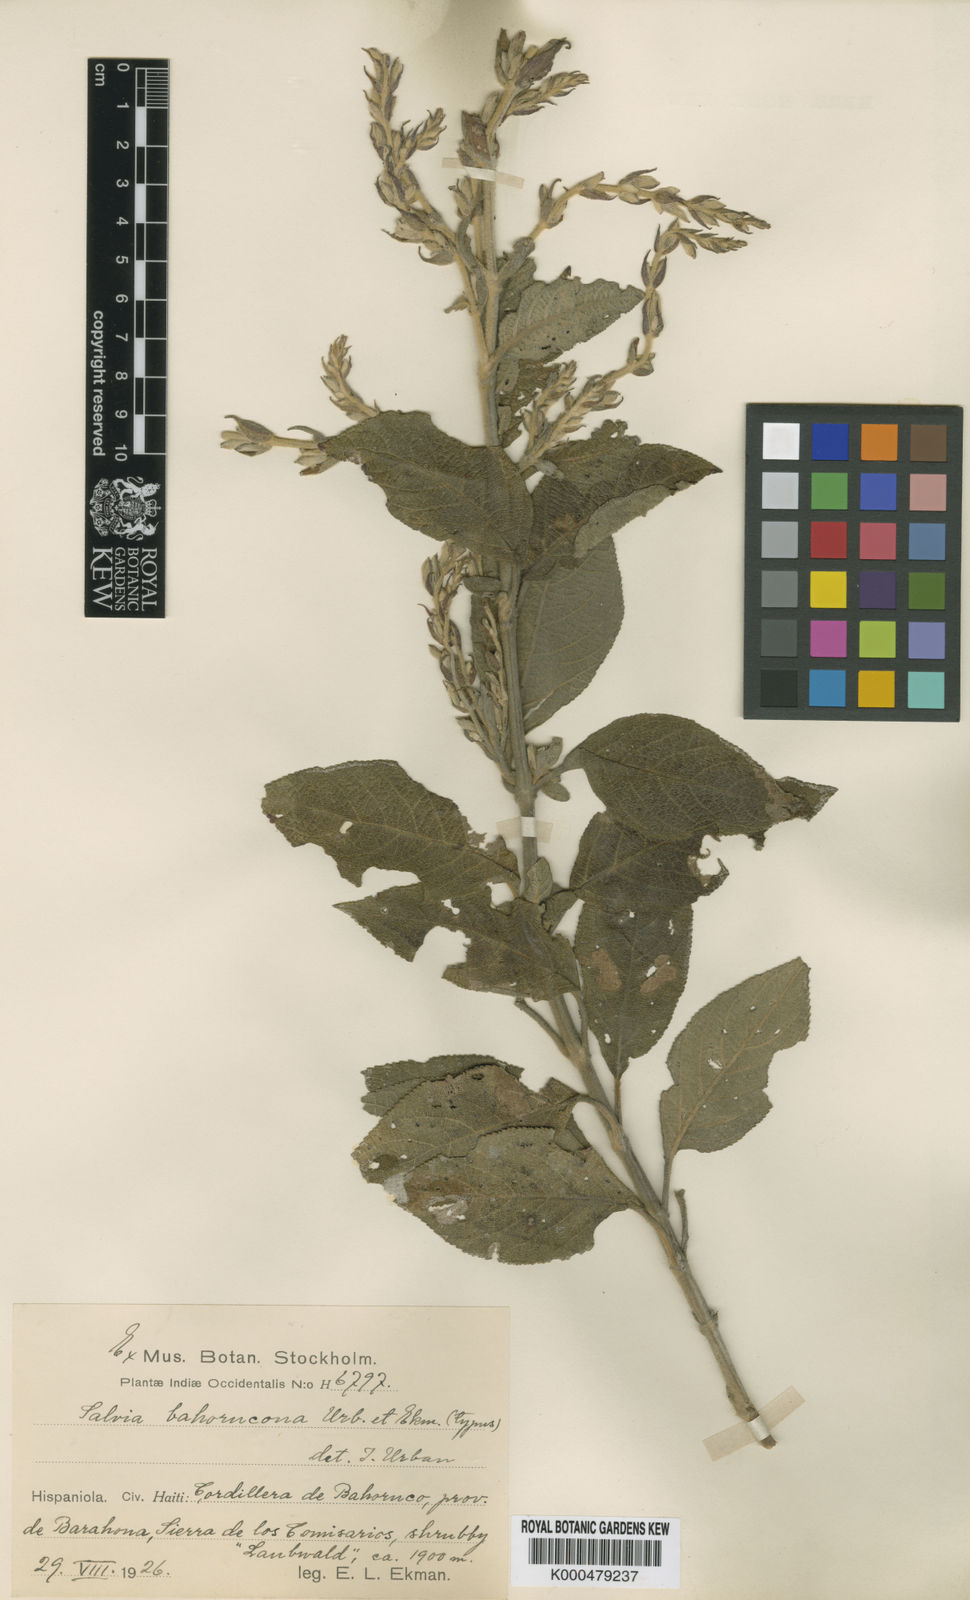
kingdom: Plantae
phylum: Tracheophyta
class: Magnoliopsida
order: Lamiales
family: Lamiaceae
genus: Salvia
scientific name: Salvia
